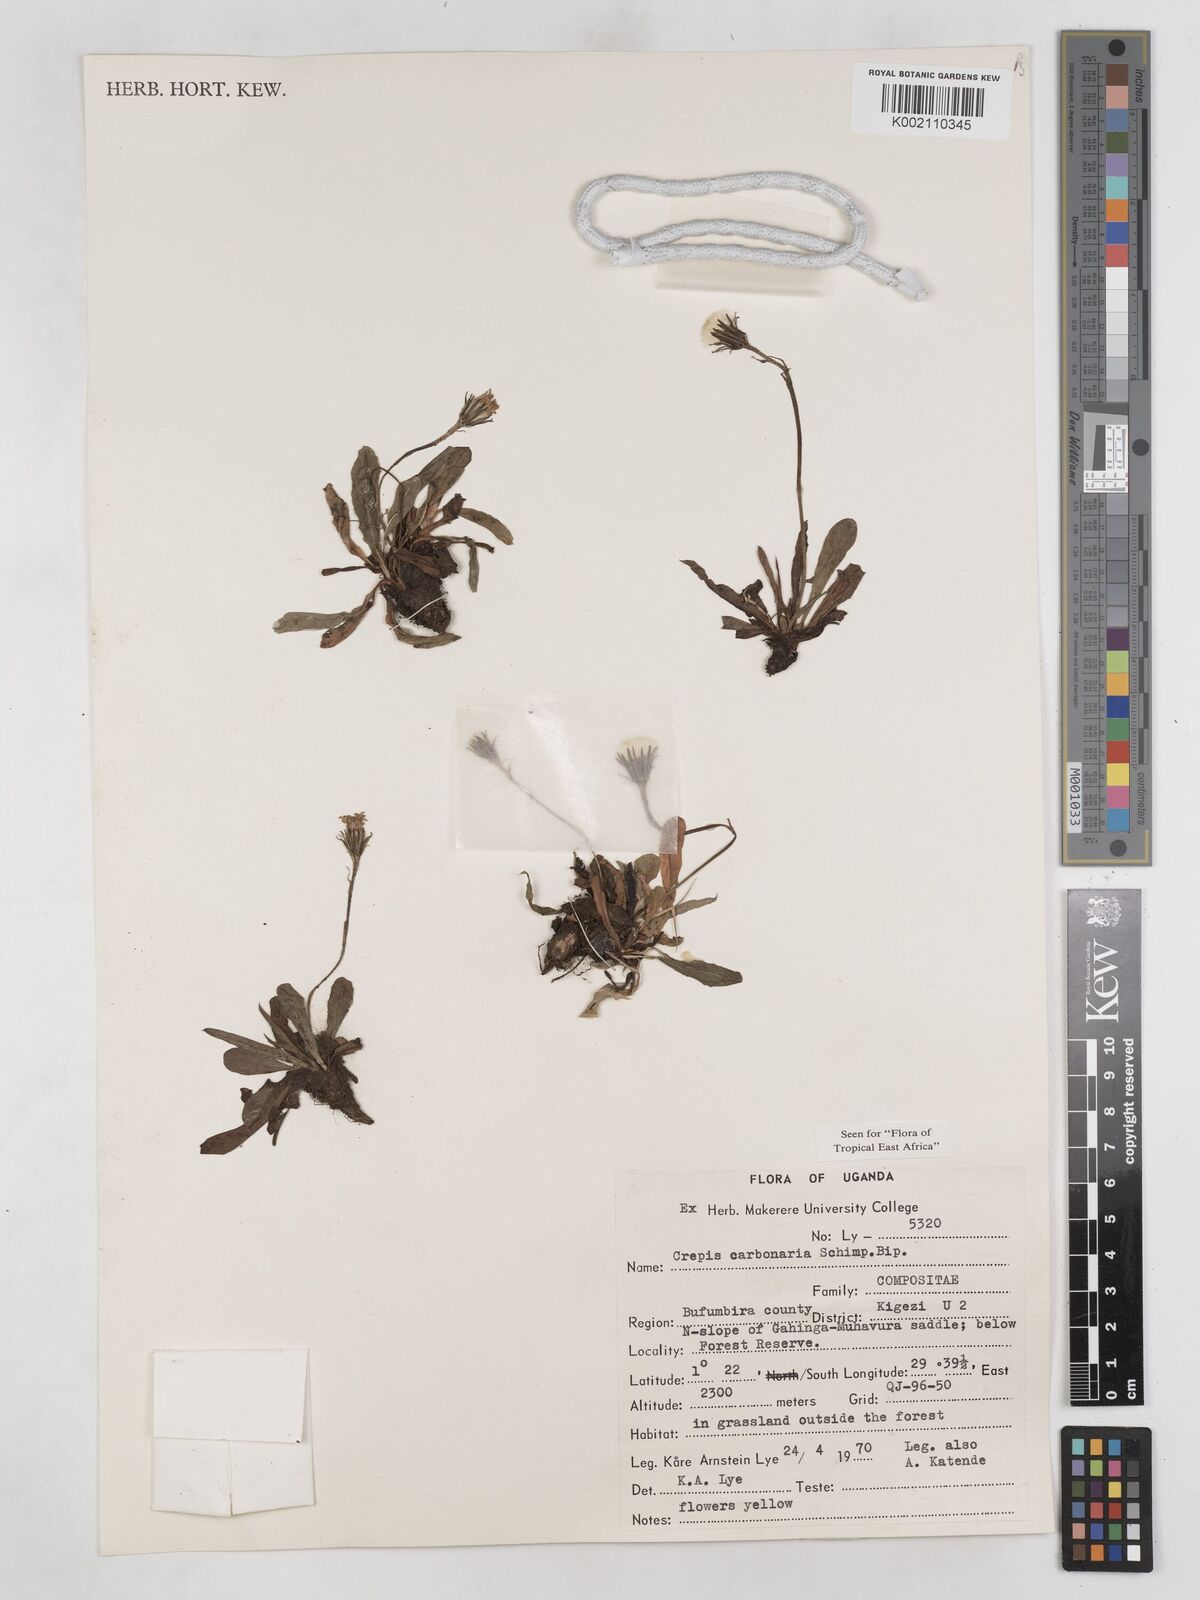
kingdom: Plantae
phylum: Tracheophyta
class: Magnoliopsida
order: Asterales
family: Asteraceae
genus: Crepis
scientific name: Crepis carbonaria
